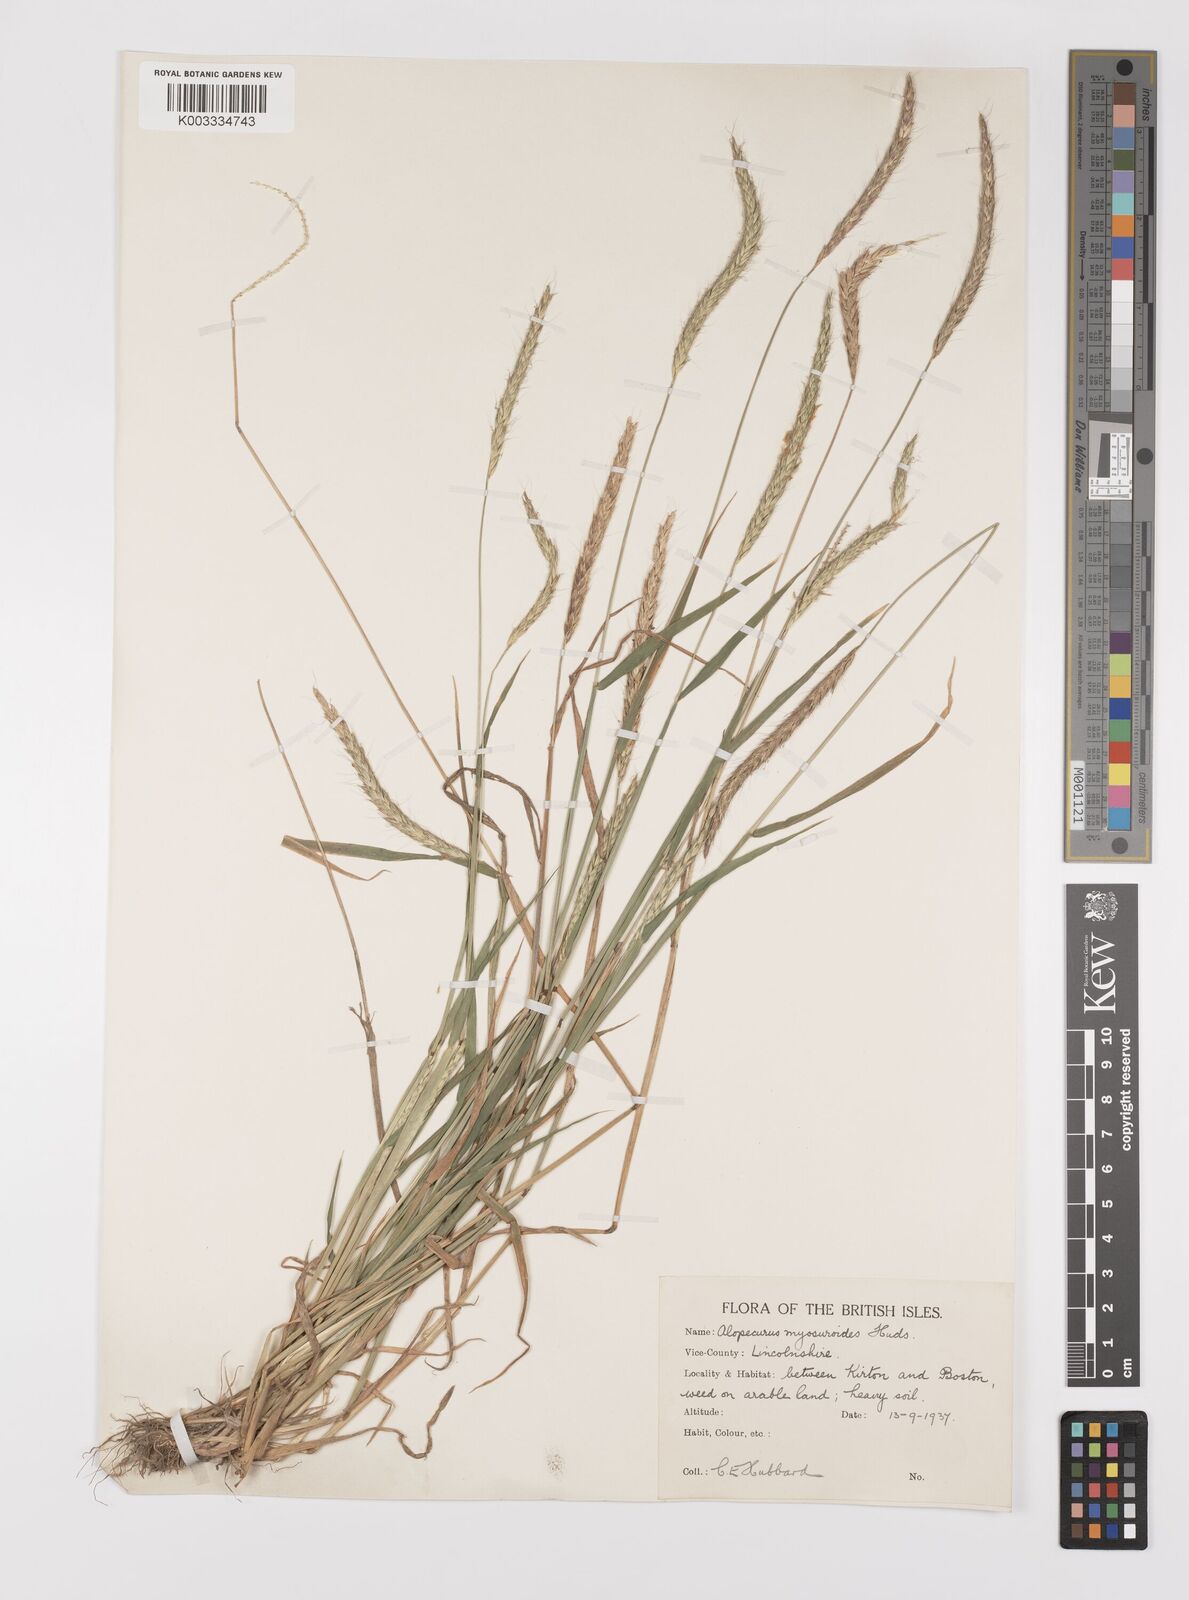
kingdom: Plantae
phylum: Tracheophyta
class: Liliopsida
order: Poales
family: Poaceae
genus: Alopecurus
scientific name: Alopecurus myosuroides
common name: Black-grass
